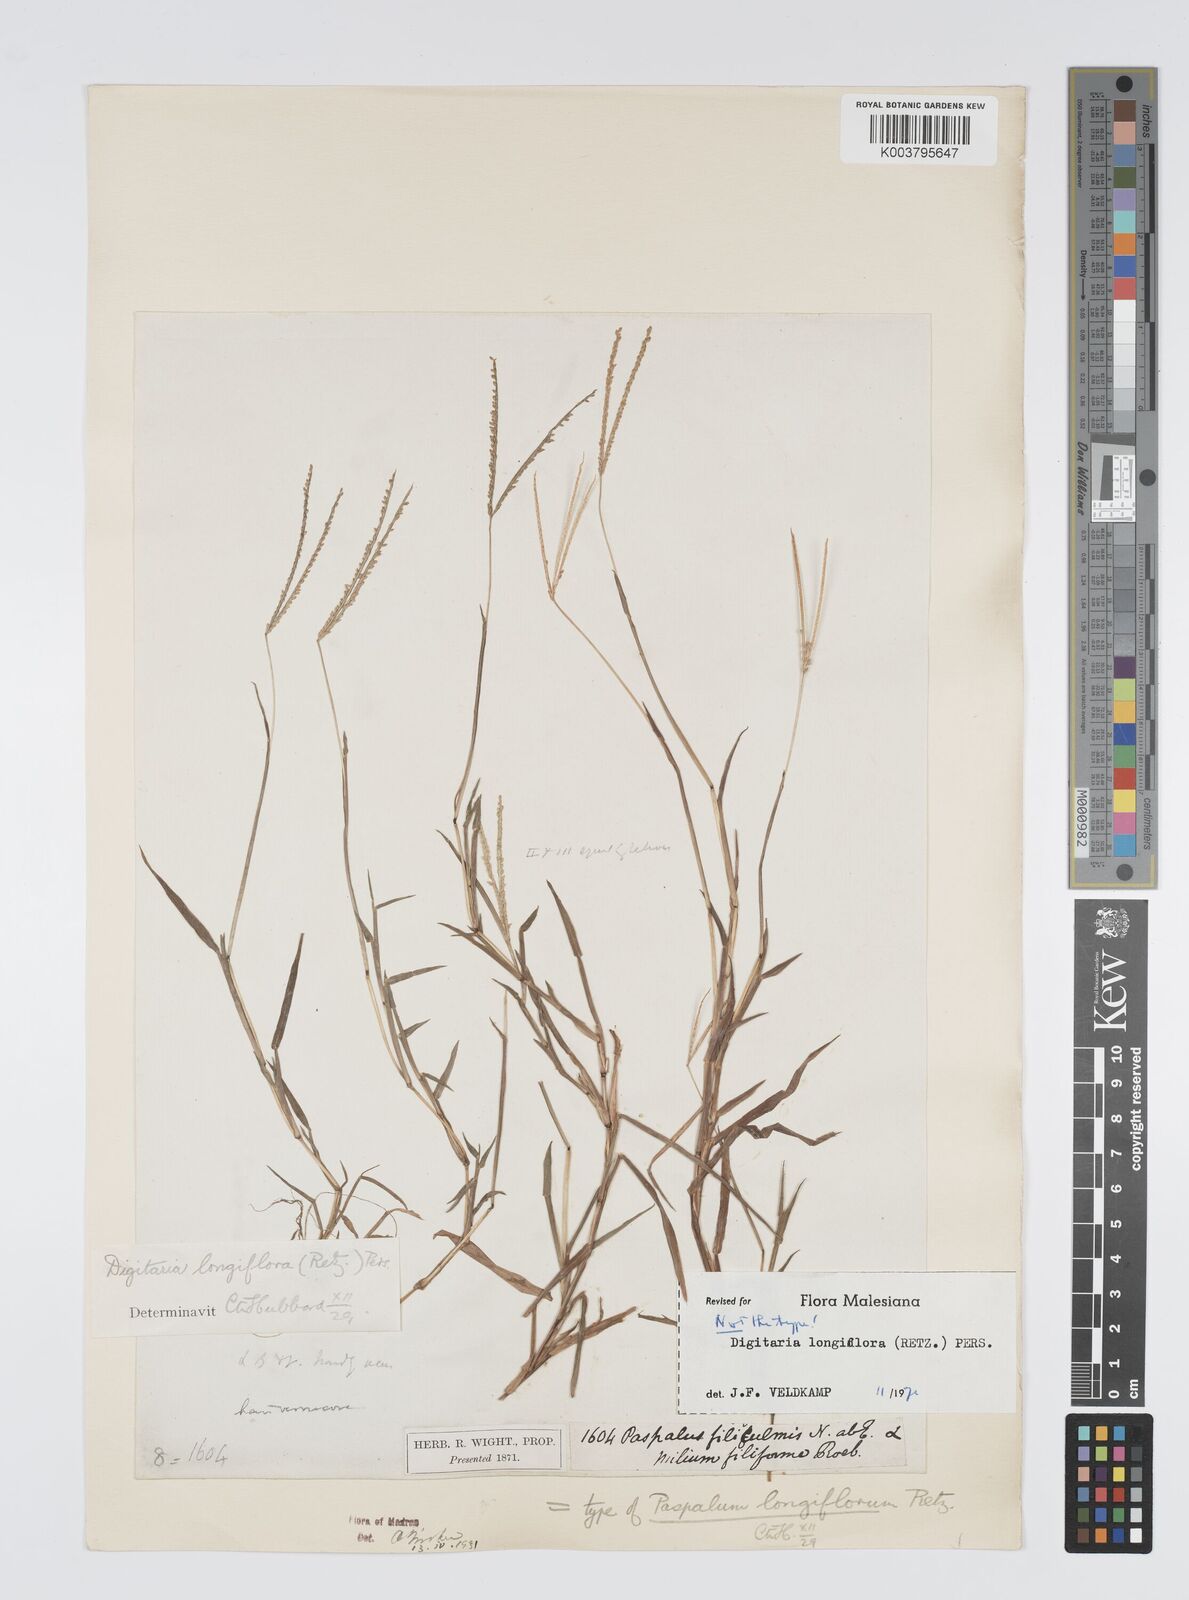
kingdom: Plantae
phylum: Tracheophyta
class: Liliopsida
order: Poales
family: Poaceae
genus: Digitaria
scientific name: Digitaria longiflora
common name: Wire crabgrass
